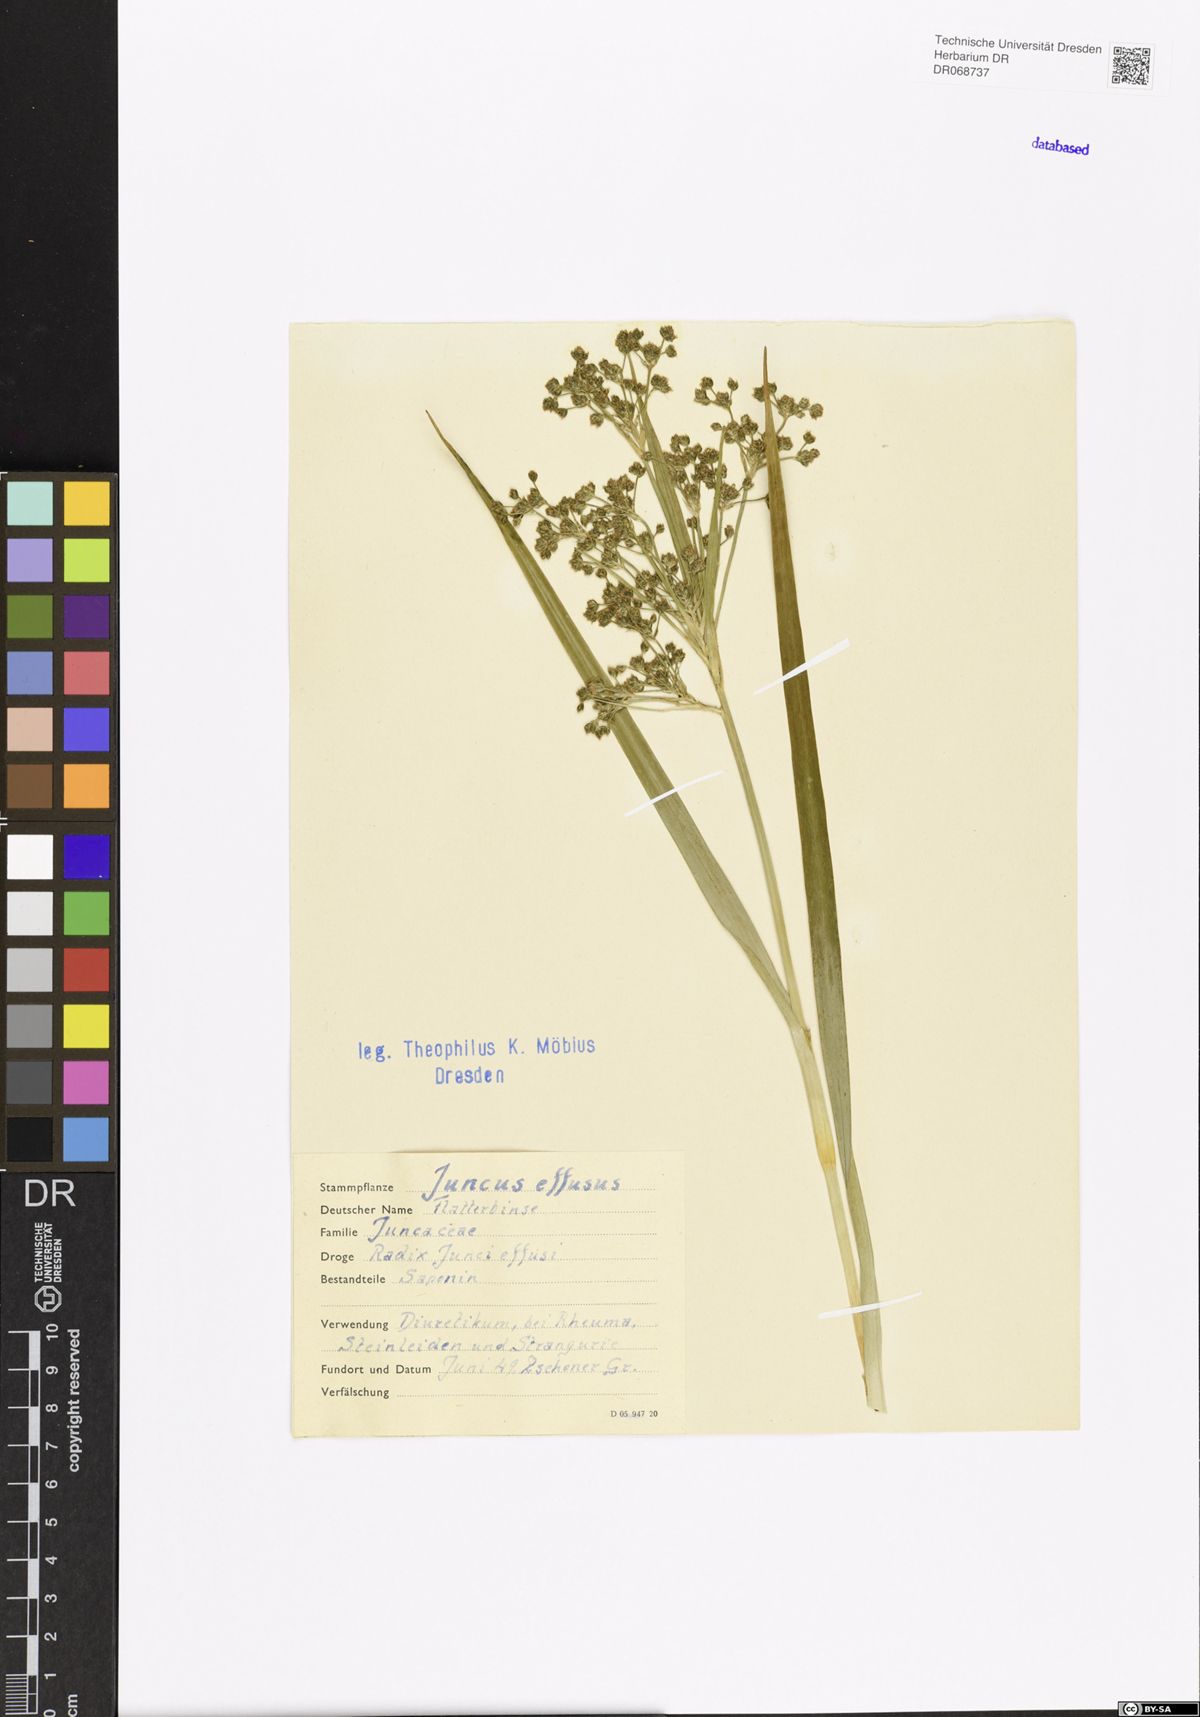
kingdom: Plantae
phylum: Tracheophyta
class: Liliopsida
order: Poales
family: Juncaceae
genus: Juncus
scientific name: Juncus effusus
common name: Soft rush
